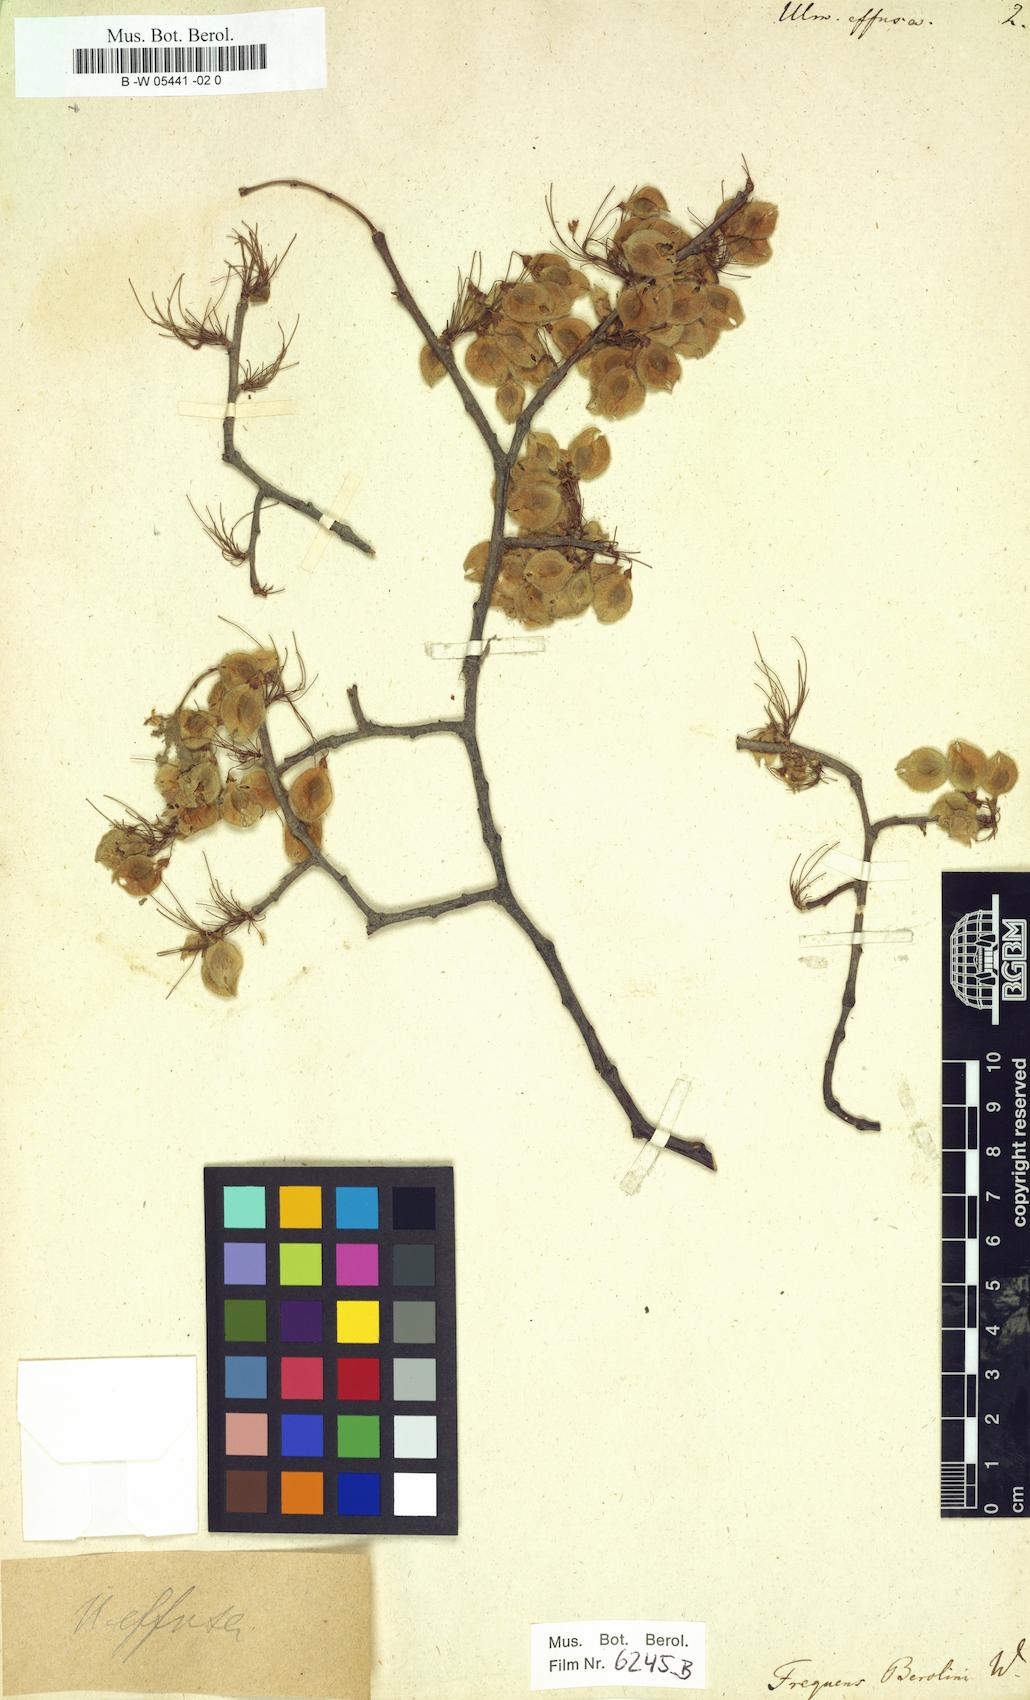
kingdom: Plantae
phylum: Tracheophyta
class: Magnoliopsida
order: Rosales
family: Ulmaceae
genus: Ulmus
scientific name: Ulmus effusa
